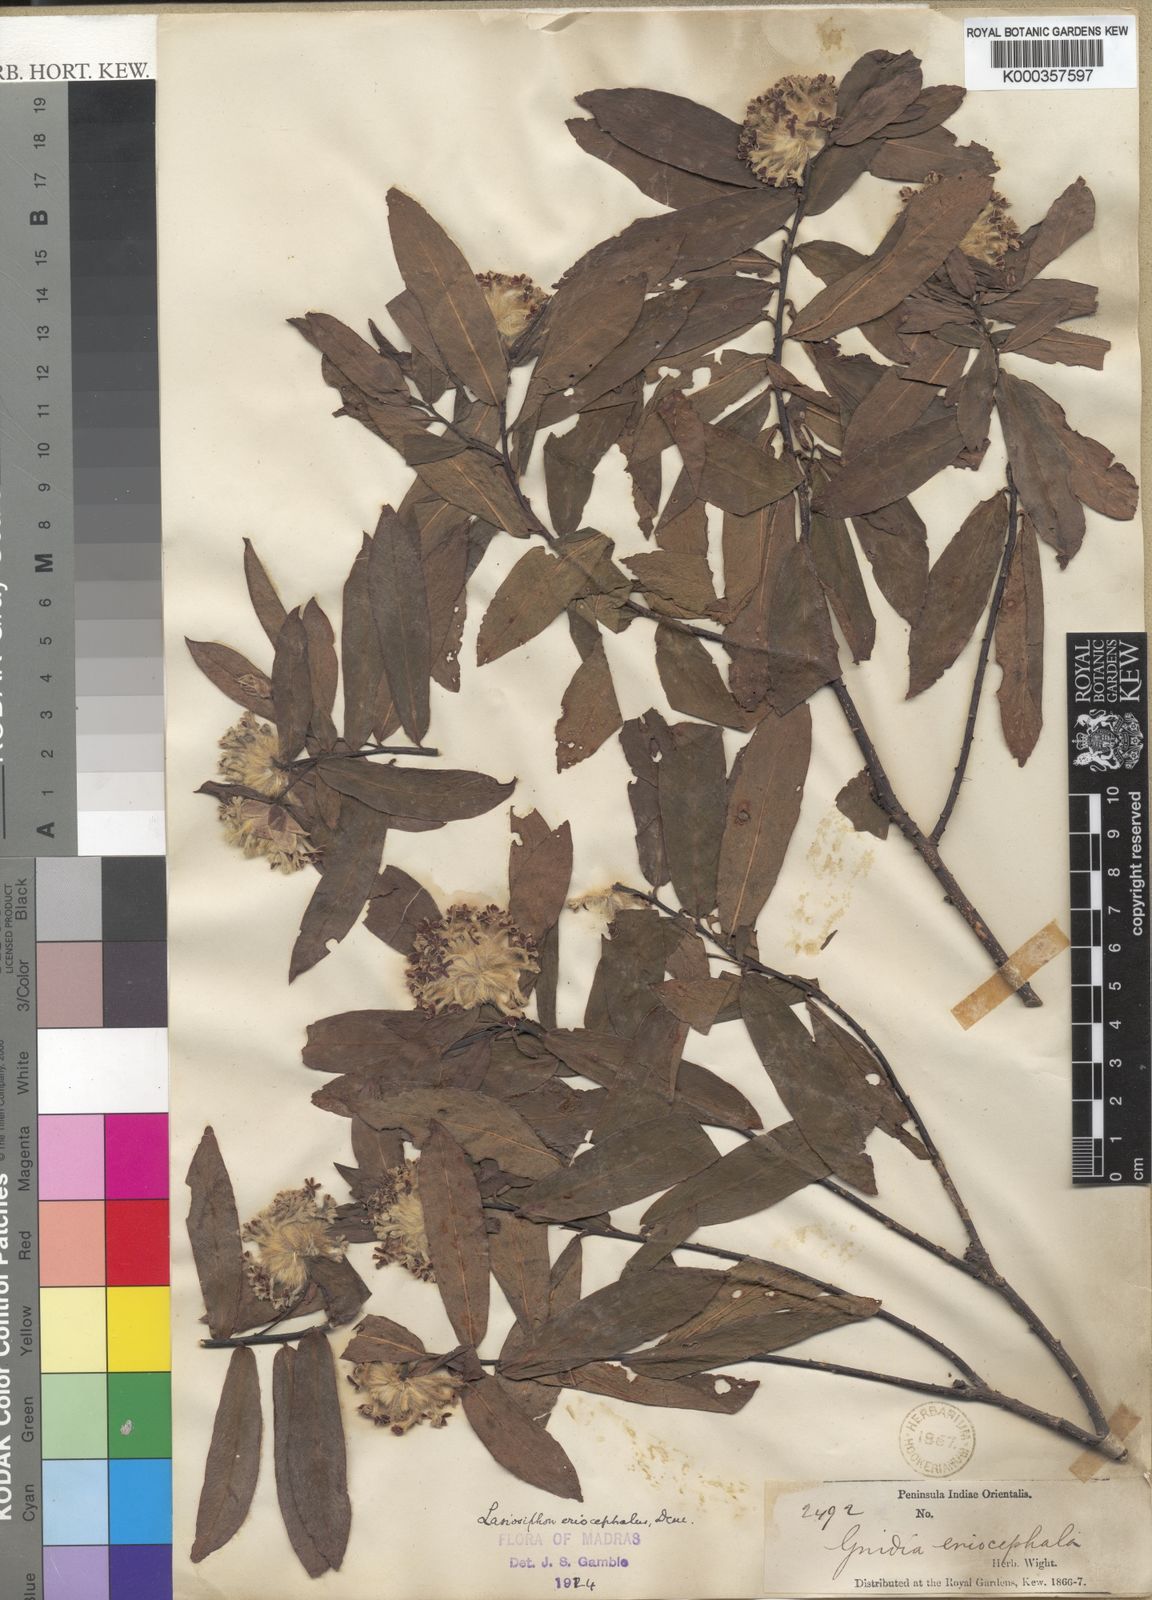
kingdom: Plantae
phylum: Tracheophyta
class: Magnoliopsida
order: Malvales
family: Thymelaeaceae
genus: Gnidia
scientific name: Gnidia glauca
